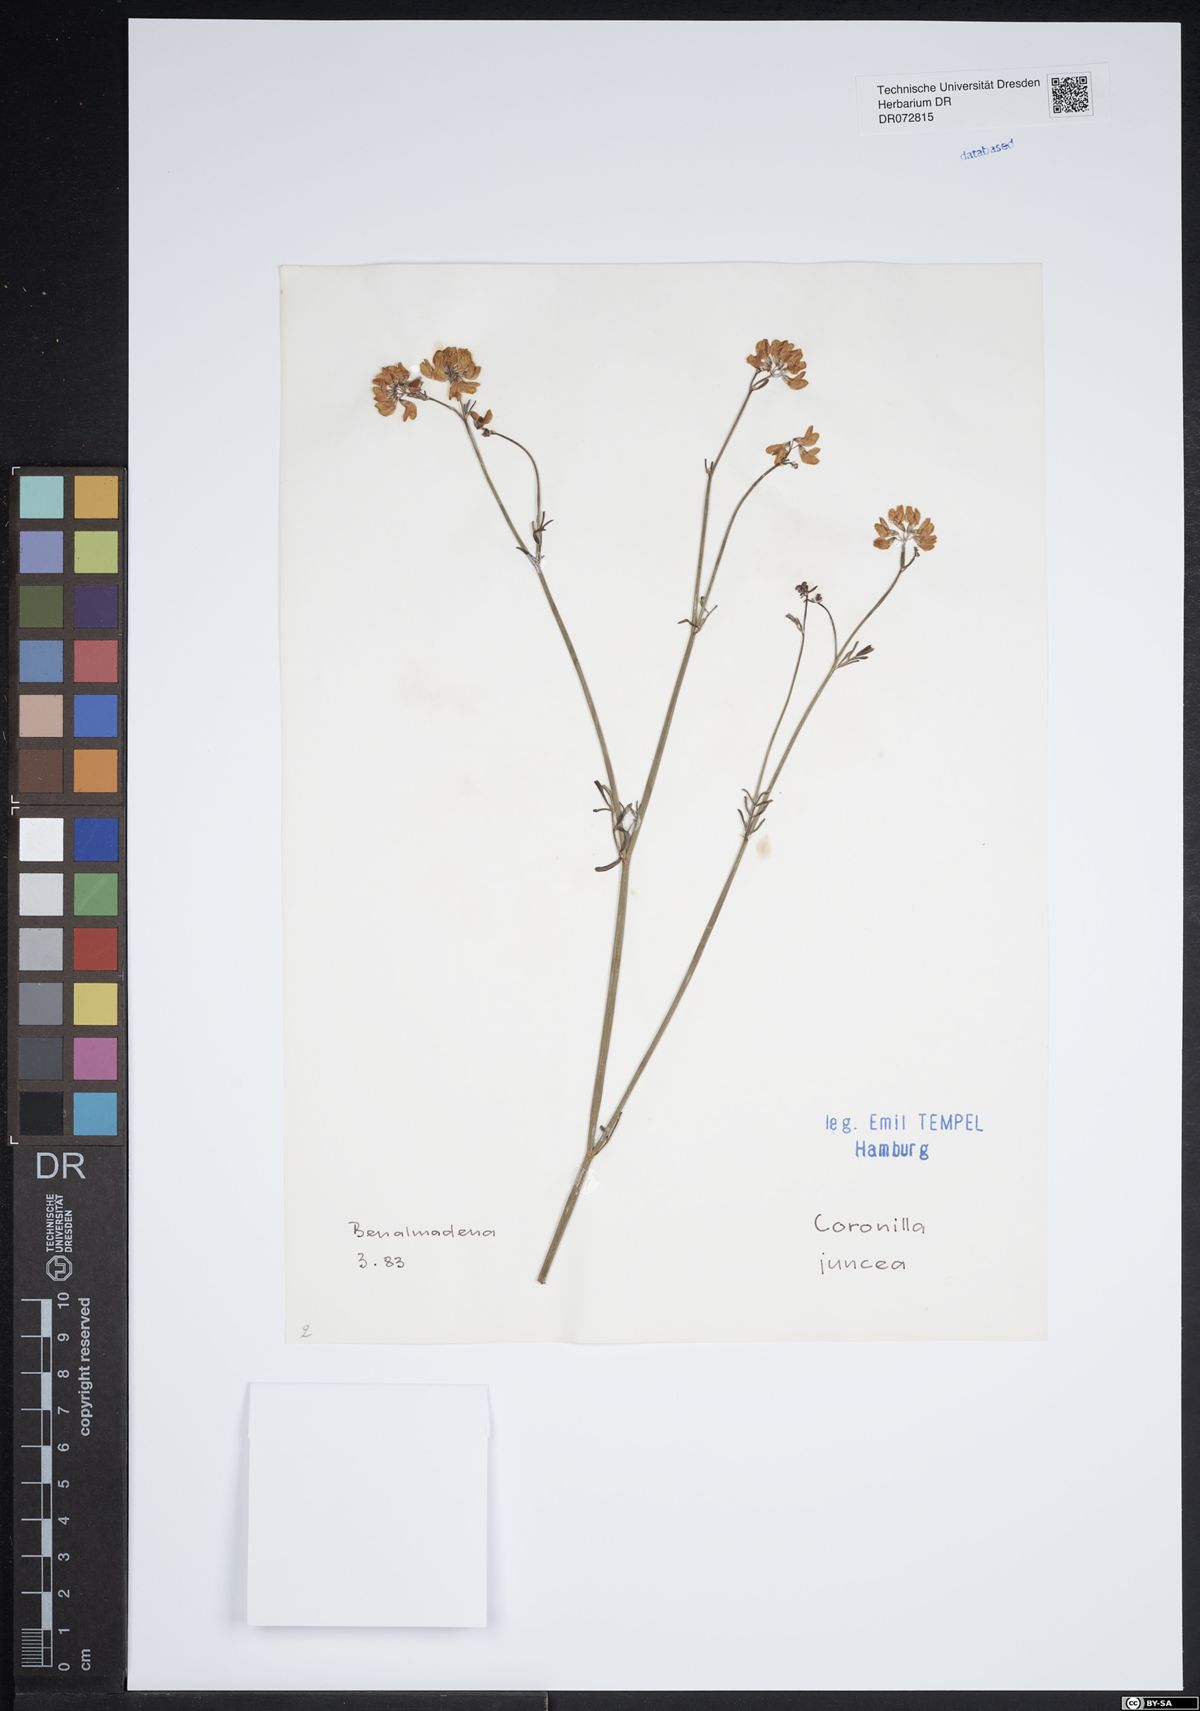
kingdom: Plantae
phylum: Tracheophyta
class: Magnoliopsida
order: Fabales
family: Fabaceae
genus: Coronilla
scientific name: Coronilla juncea
